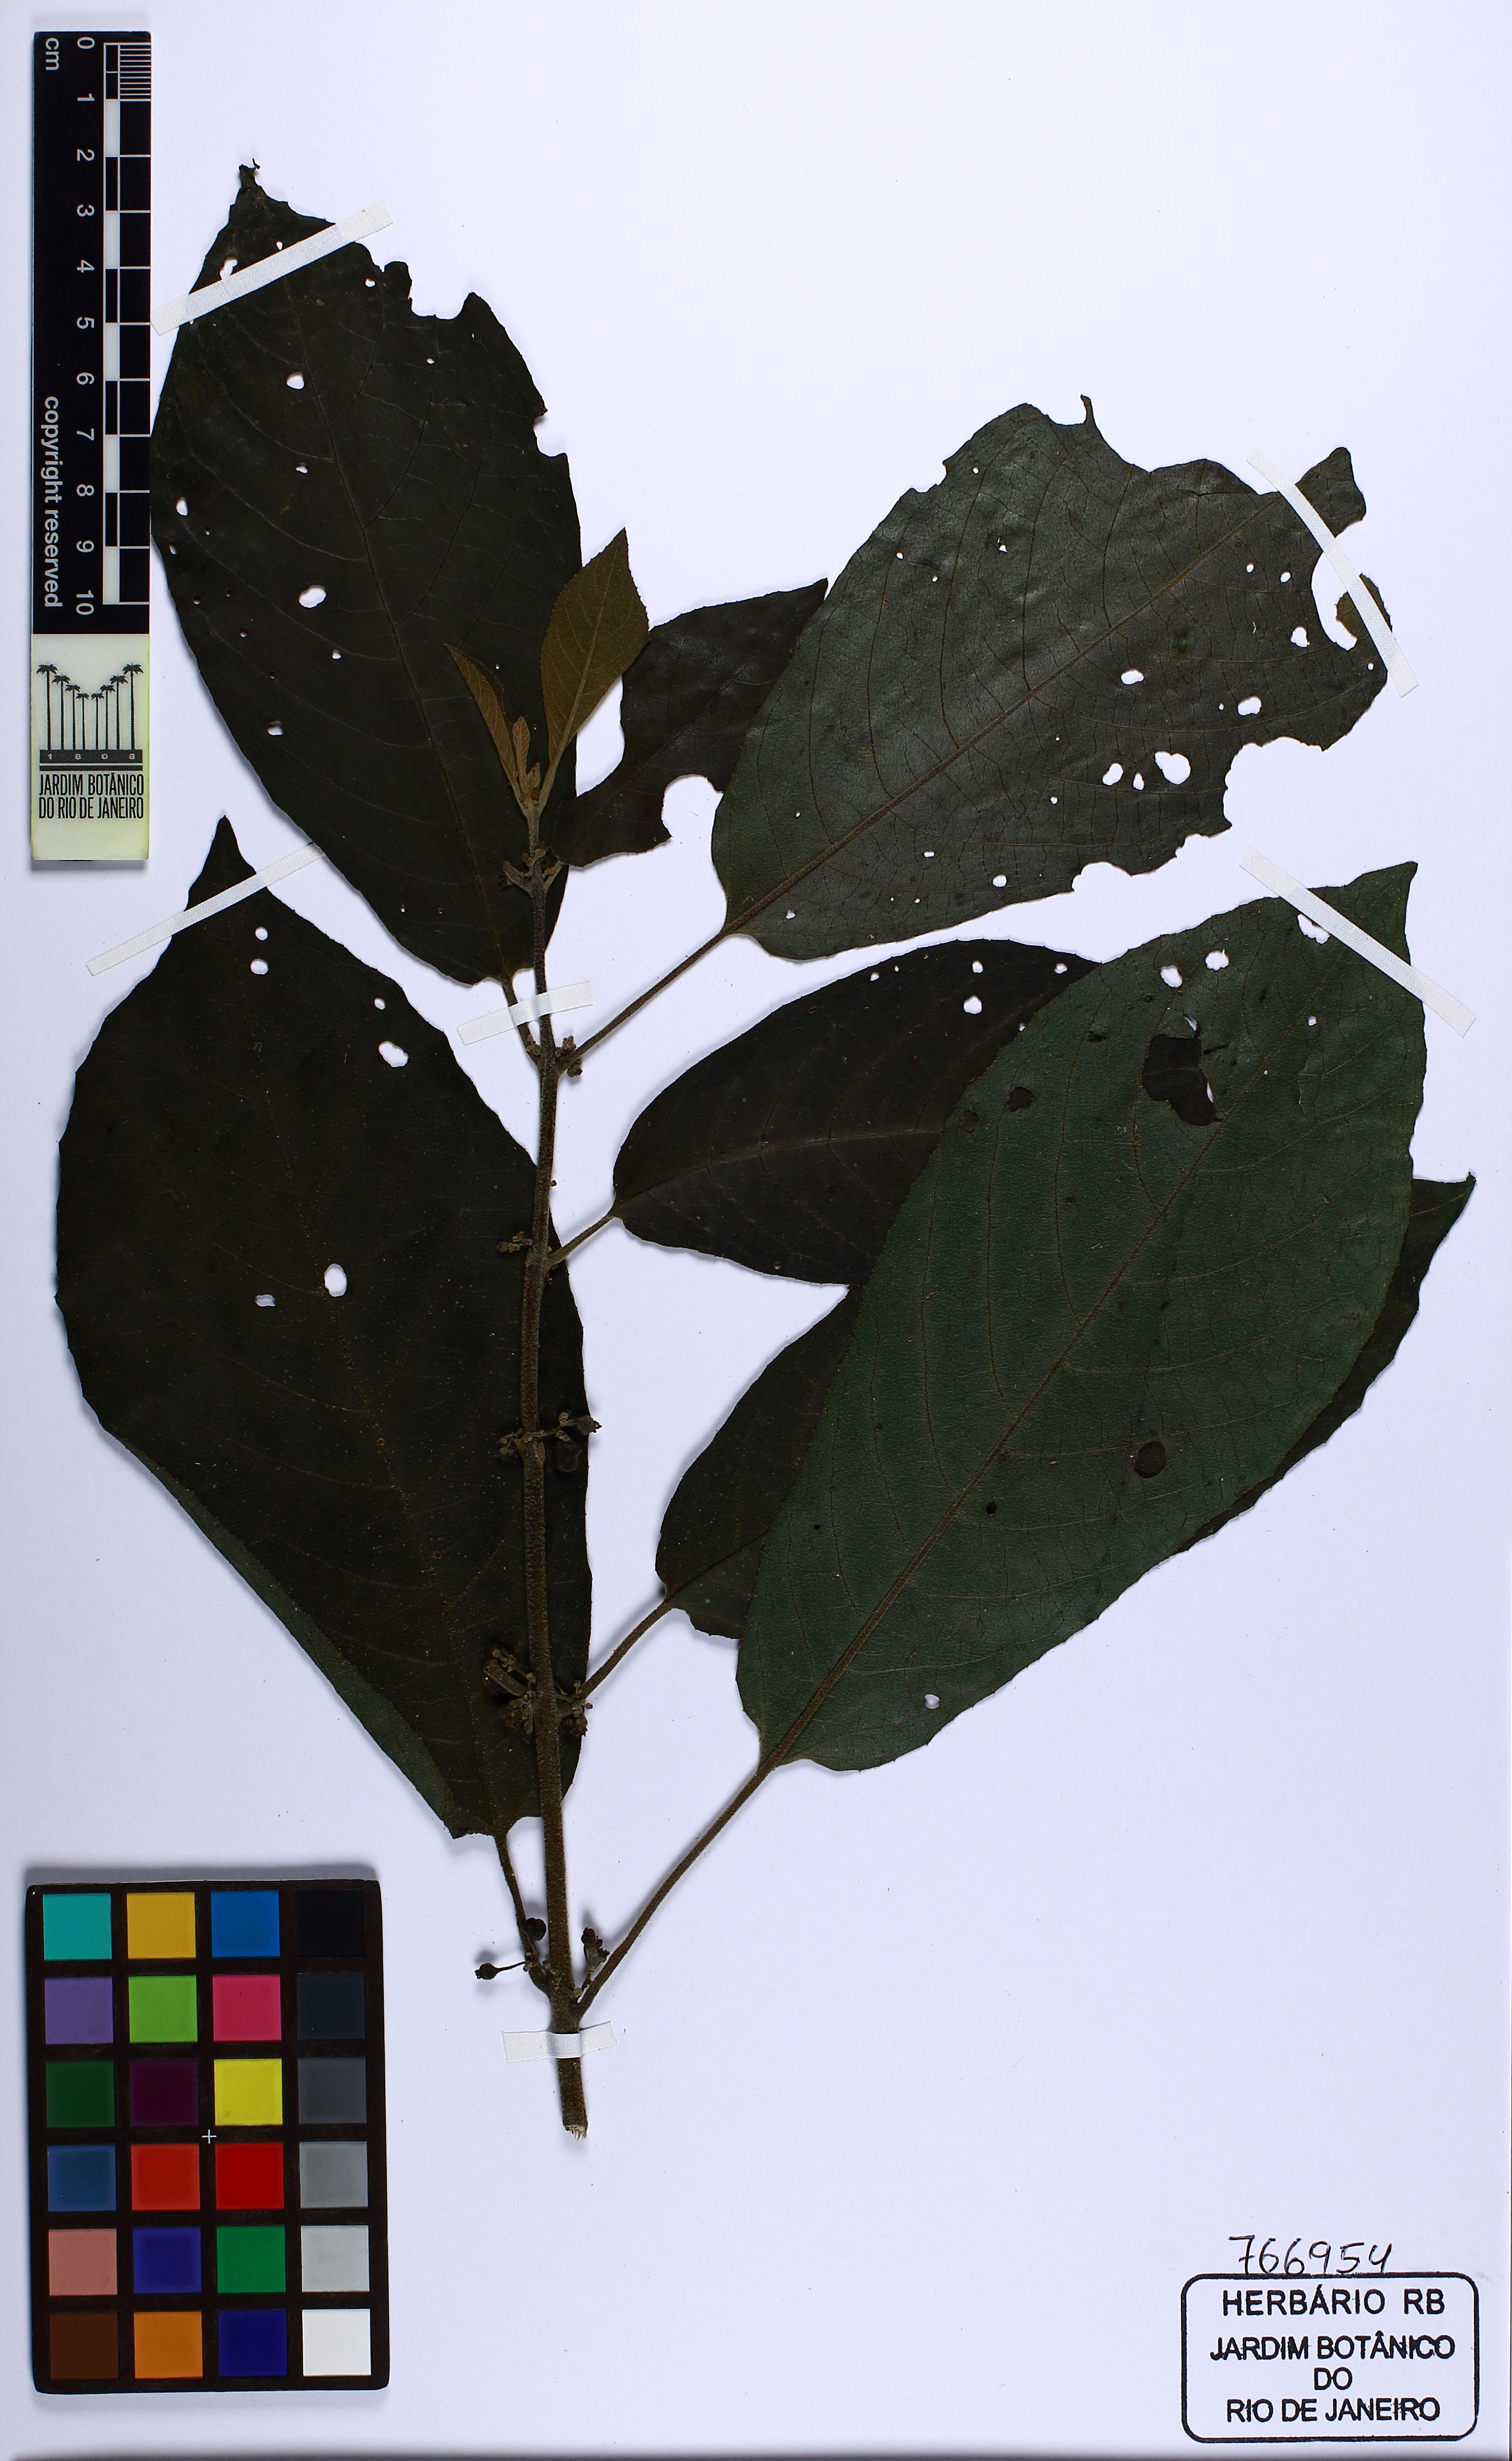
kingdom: Plantae
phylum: Tracheophyta
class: Magnoliopsida
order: Laurales
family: Siparunaceae
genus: Siparuna
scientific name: Siparuna guianensis
